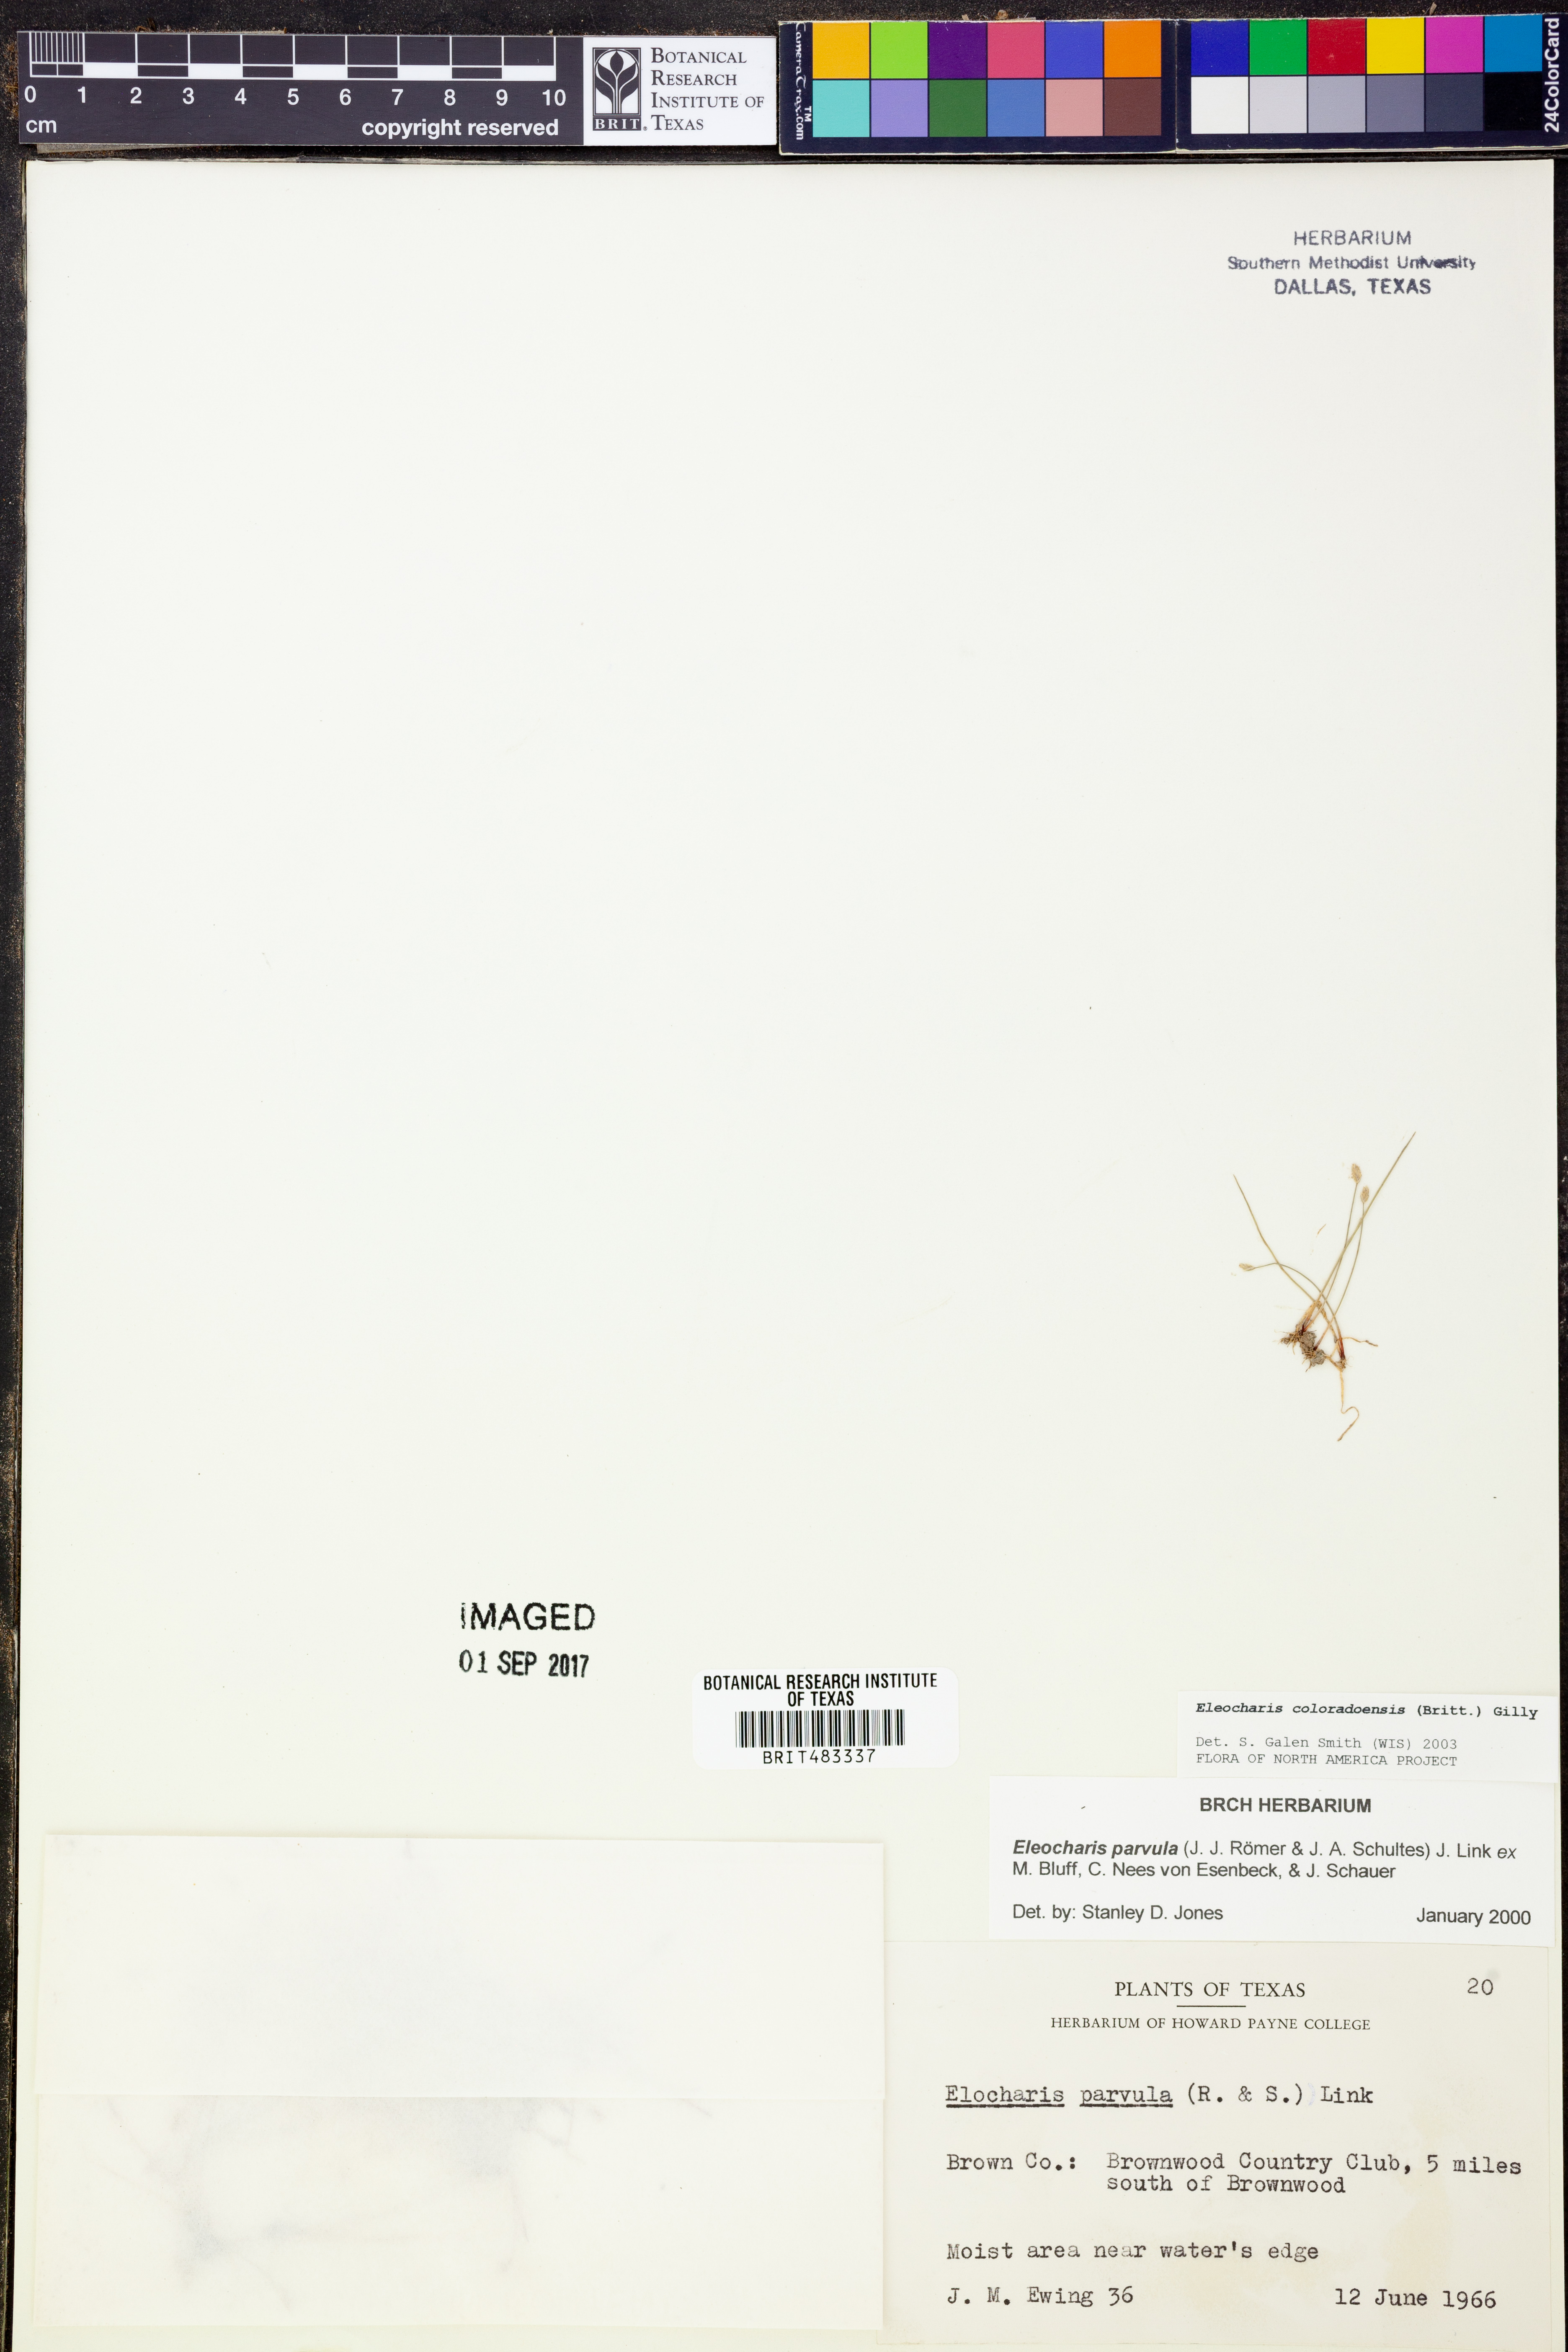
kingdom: Plantae
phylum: Tracheophyta
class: Liliopsida
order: Poales
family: Cyperaceae
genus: Eleocharis
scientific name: Eleocharis coloradoensis
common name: Colorado spikerush
